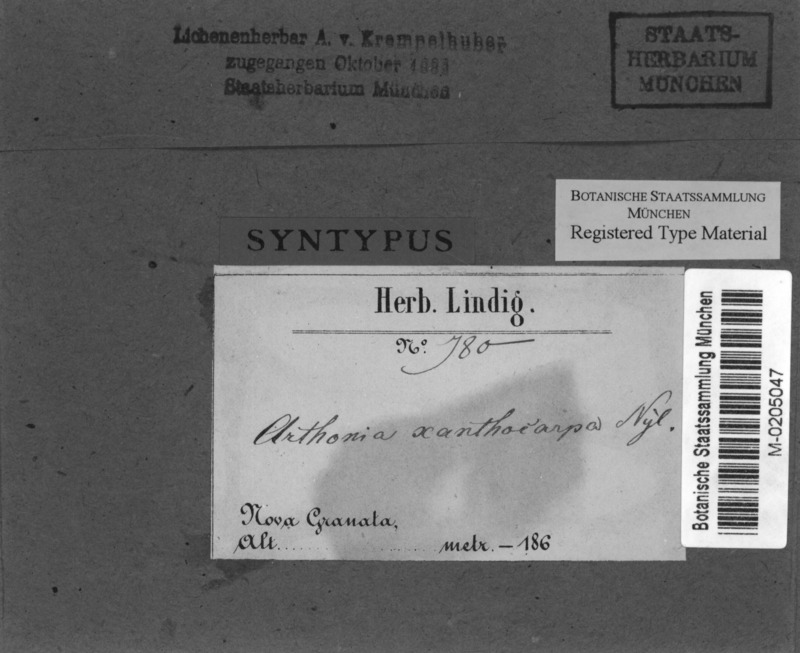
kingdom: Fungi
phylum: Ascomycota
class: Arthoniomycetes
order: Arthoniales
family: Arthoniaceae
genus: Arthothelium
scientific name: Arthothelium xanthocarpum
